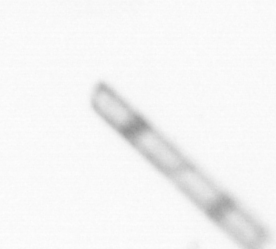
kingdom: Chromista
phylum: Ochrophyta
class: Bacillariophyceae
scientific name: Bacillariophyceae
